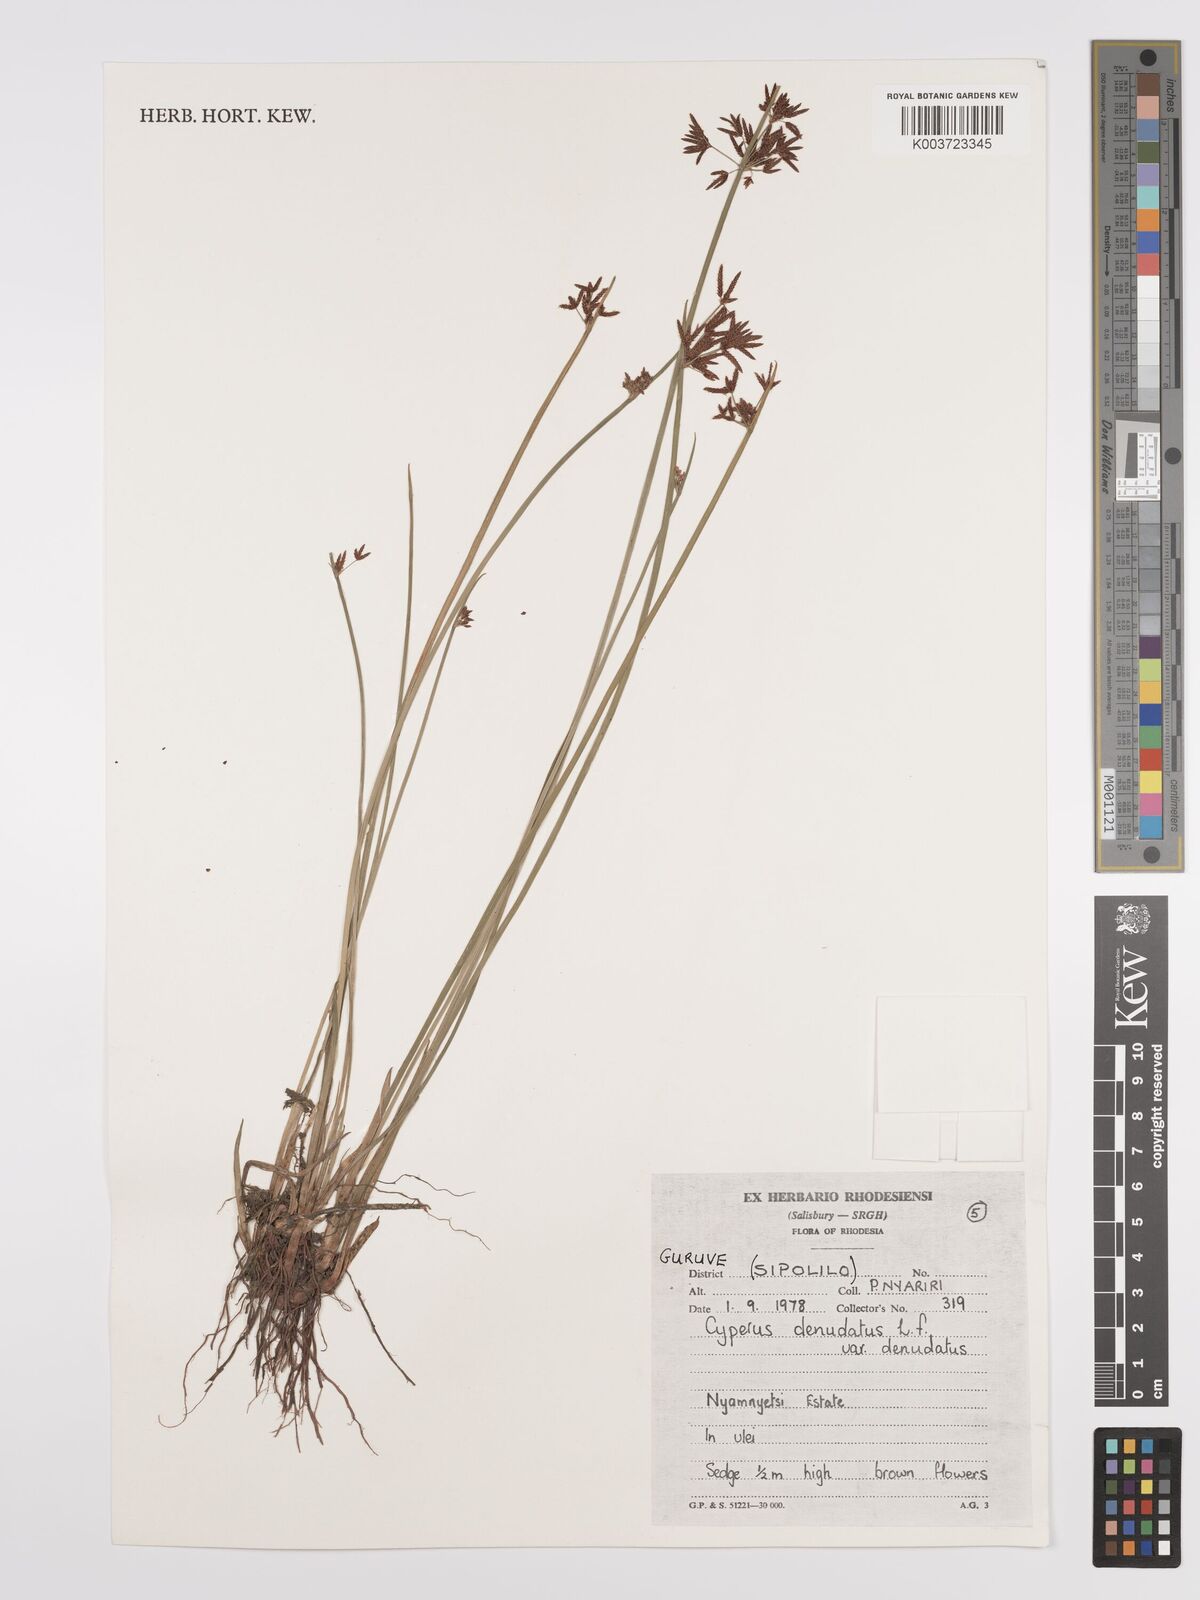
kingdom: Plantae
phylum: Tracheophyta
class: Liliopsida
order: Poales
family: Cyperaceae
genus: Cyperus
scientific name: Cyperus denudatus
